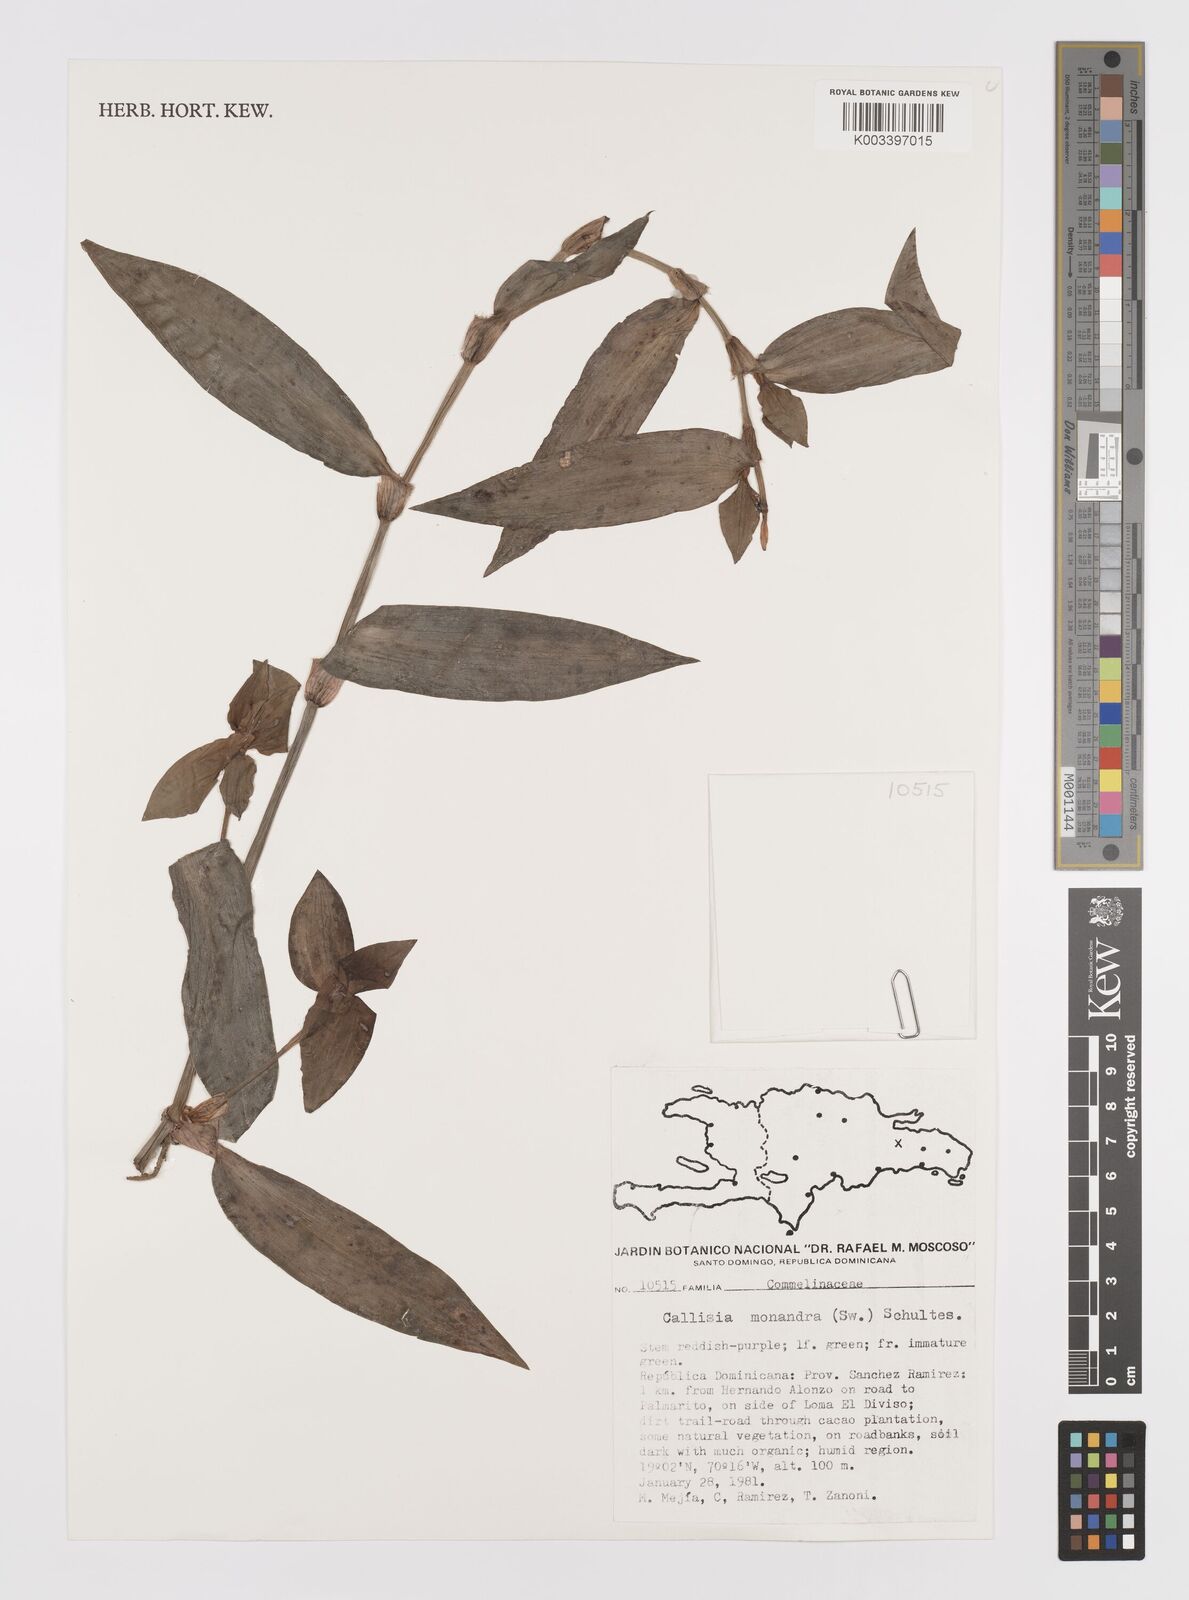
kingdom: Plantae
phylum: Tracheophyta
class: Liliopsida
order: Commelinales
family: Commelinaceae
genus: Callisia
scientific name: Callisia monandra
